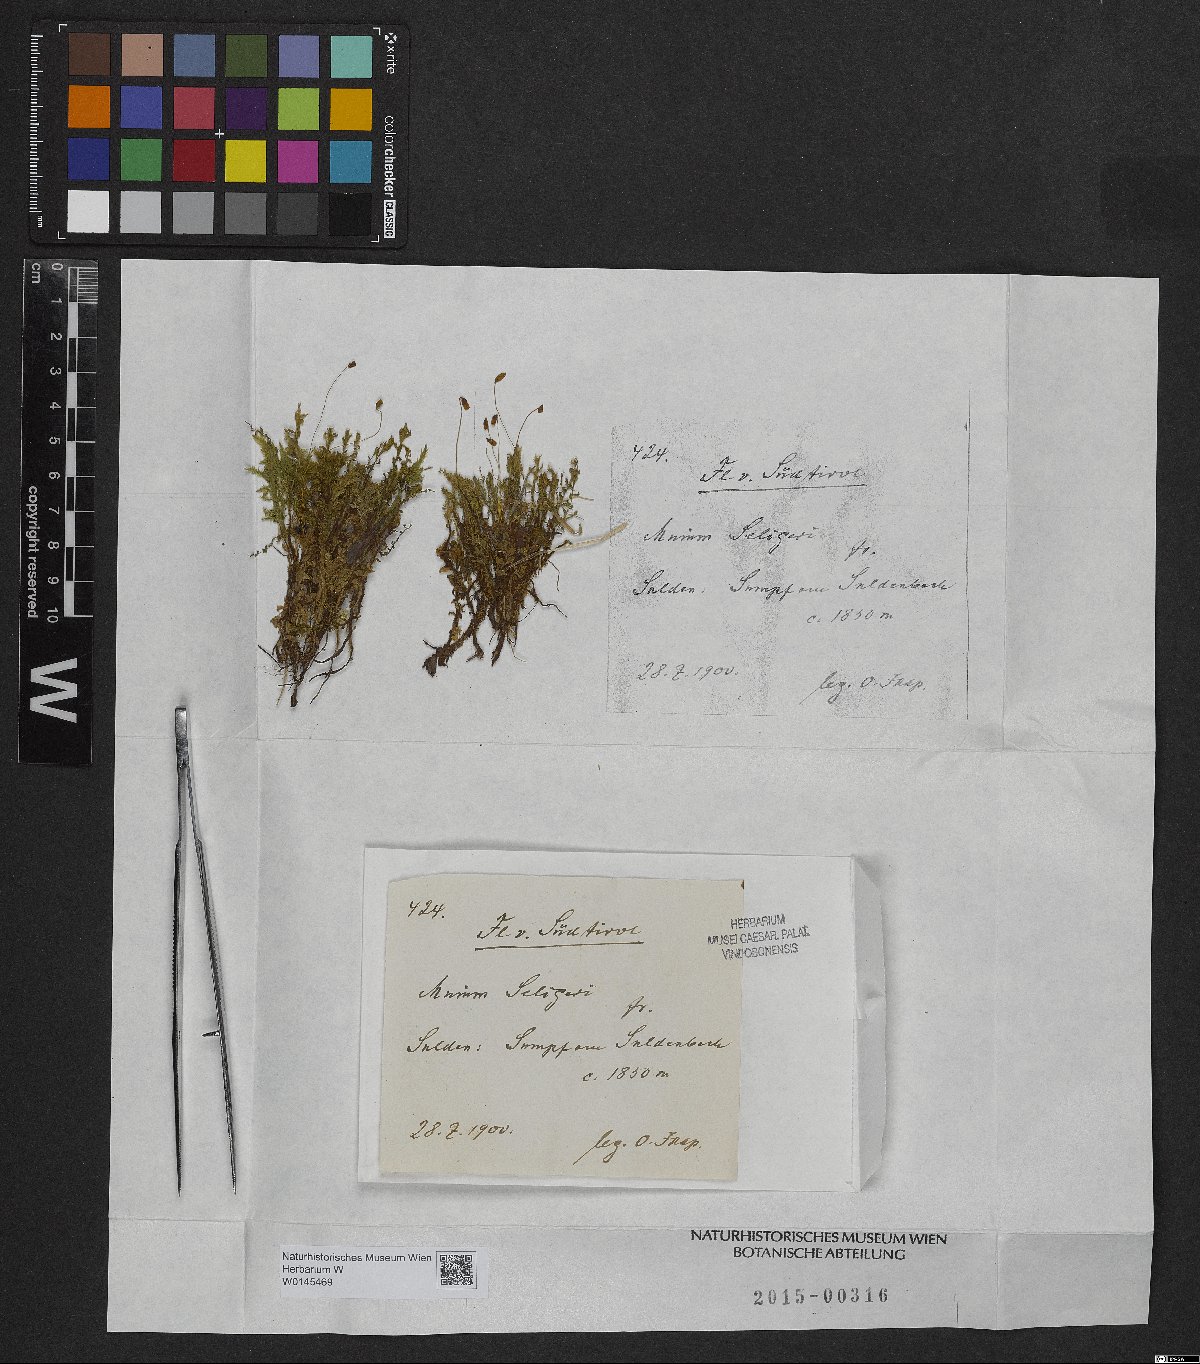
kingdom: Plantae
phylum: Bryophyta
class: Bryopsida
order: Bryales
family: Mniaceae
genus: Plagiomnium
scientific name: Plagiomnium elatum
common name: Tall thyme-moss
